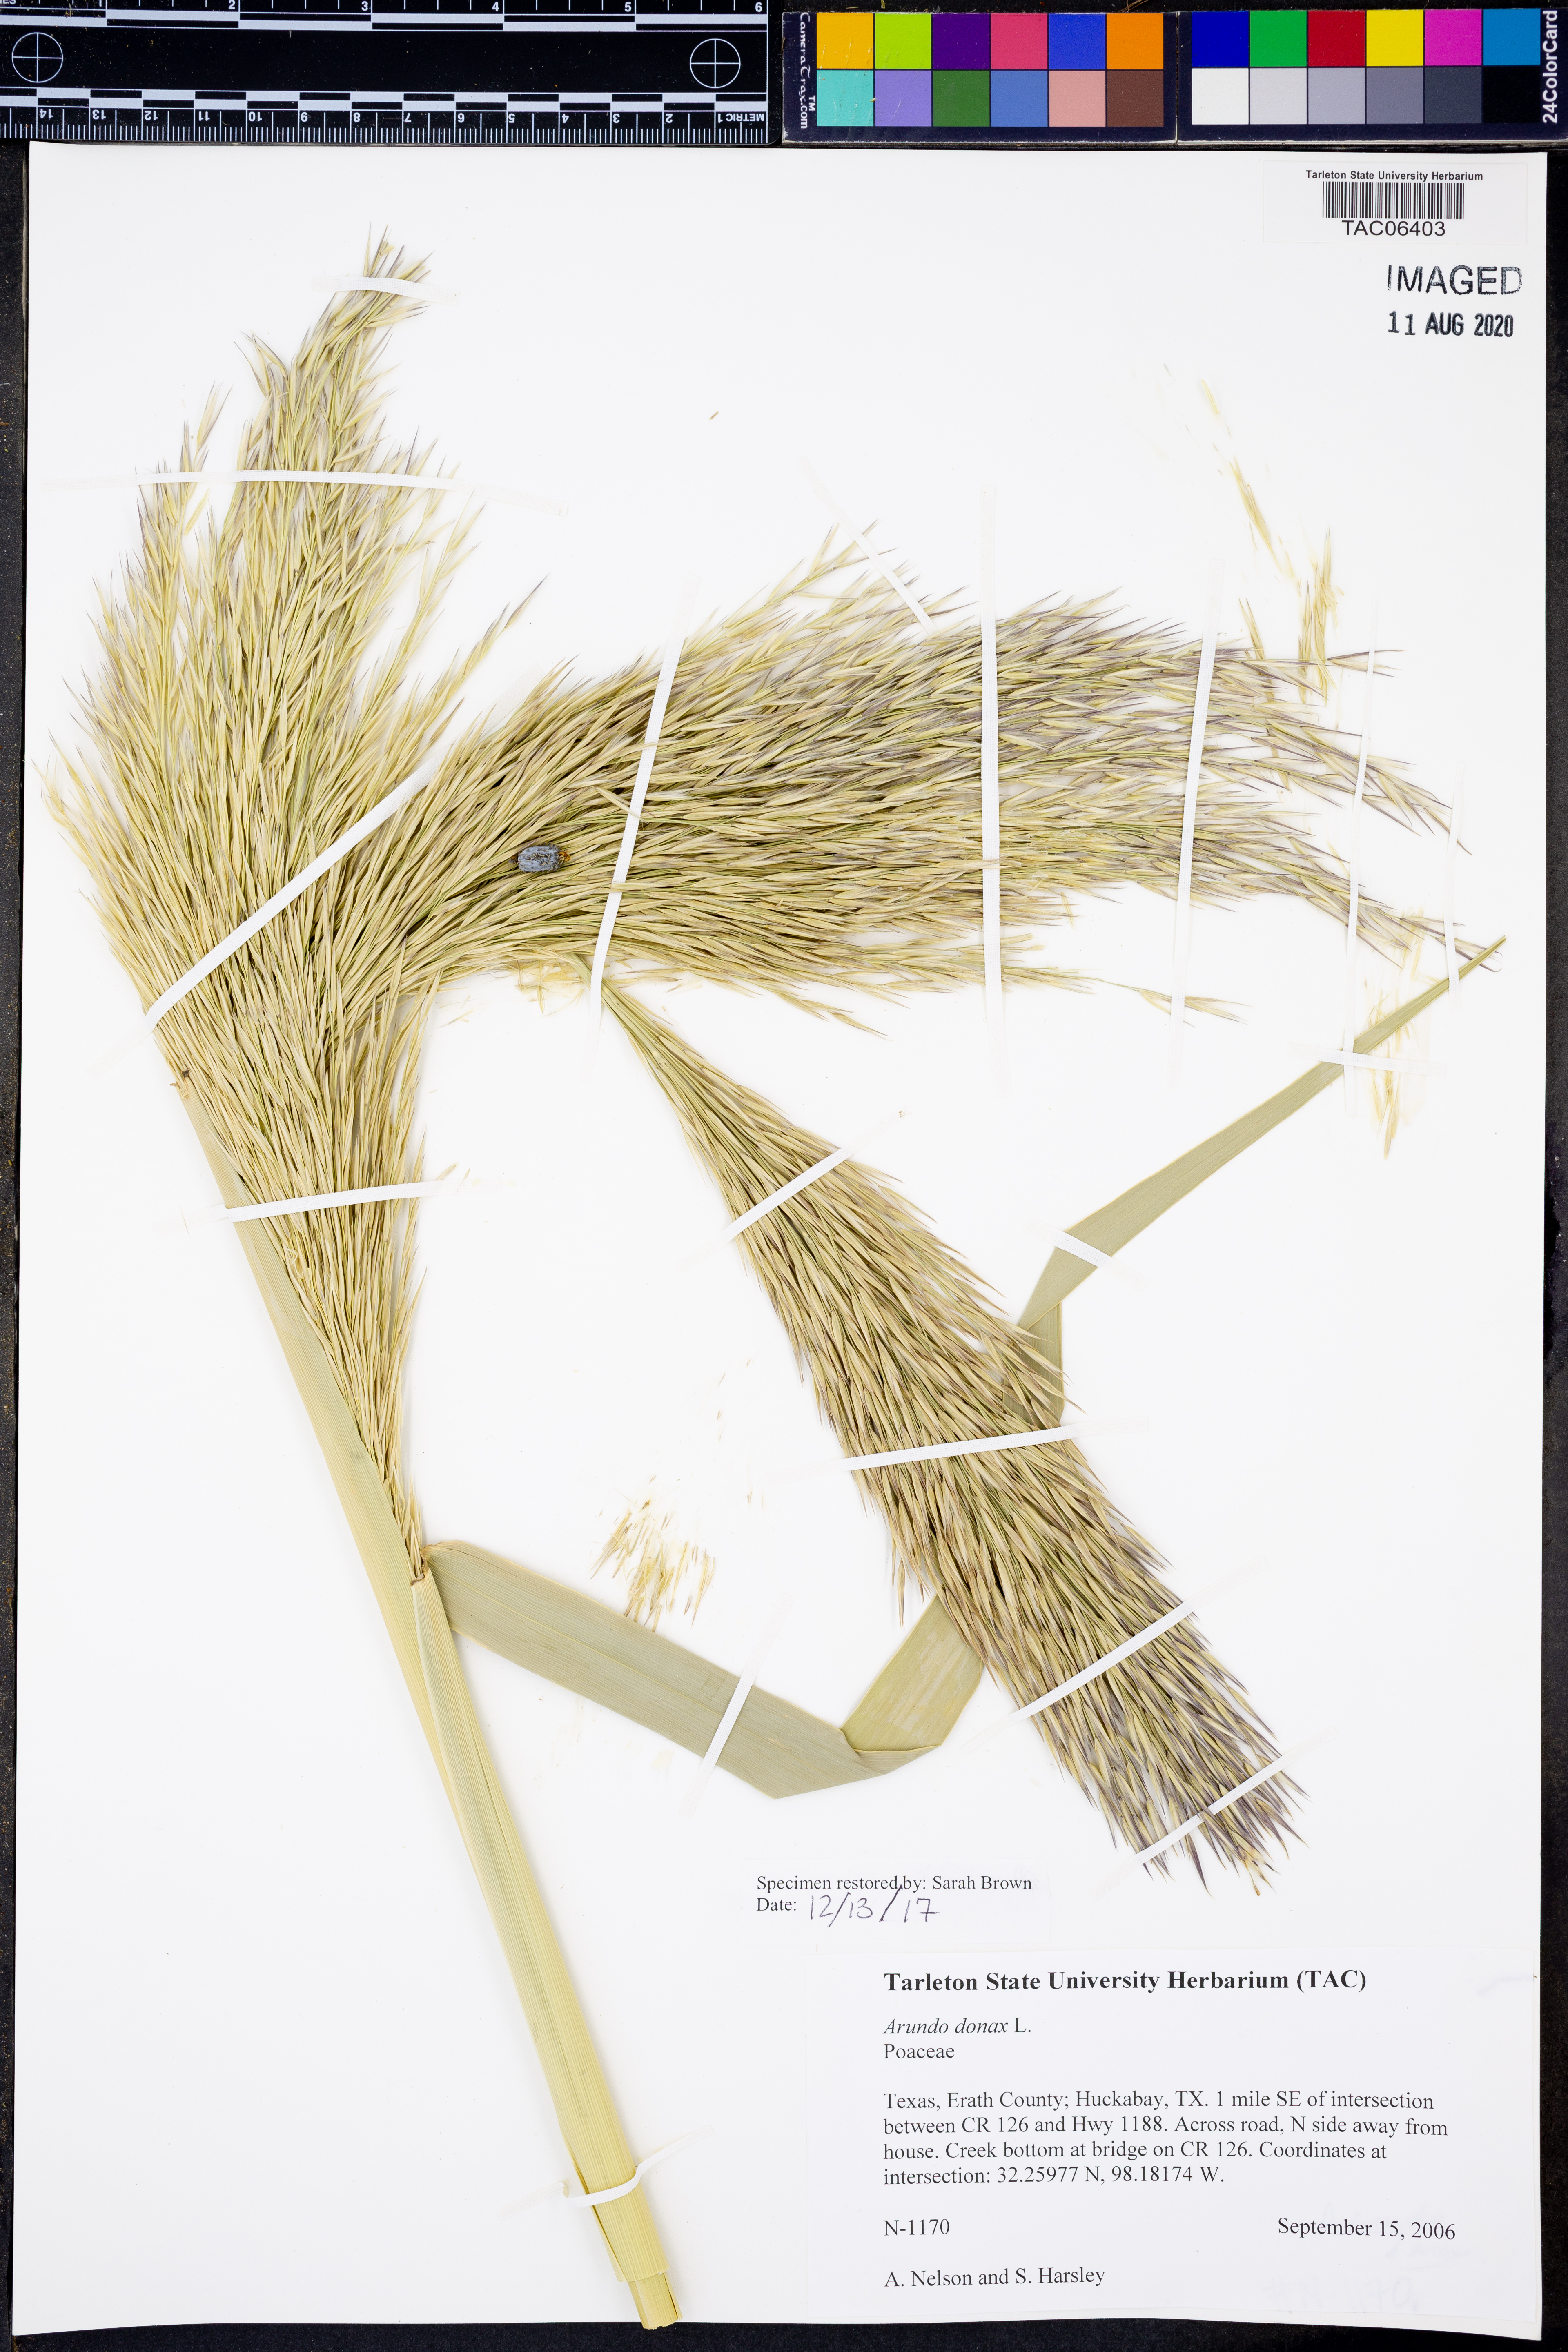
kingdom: Plantae
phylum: Tracheophyta
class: Liliopsida
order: Poales
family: Poaceae
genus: Arundo
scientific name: Arundo donax
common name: Giant reed
